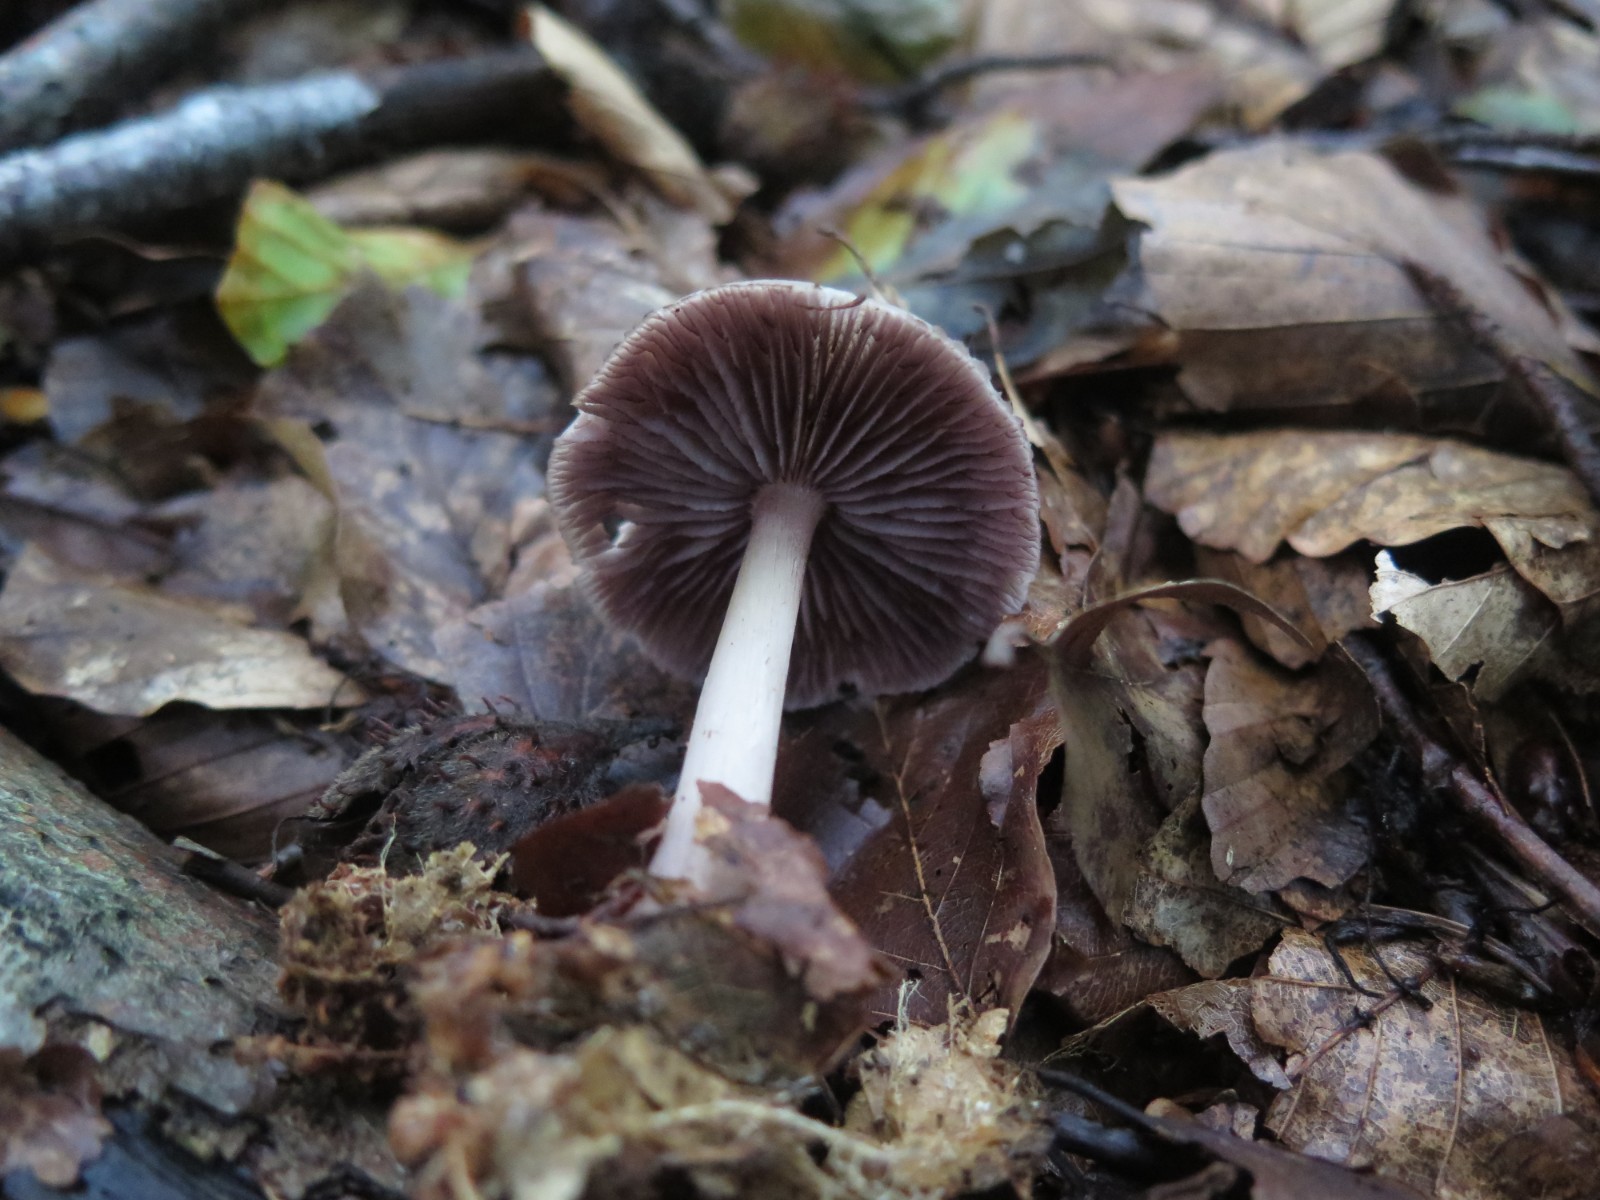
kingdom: Fungi
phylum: Basidiomycota
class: Agaricomycetes
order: Agaricales
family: Mycenaceae
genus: Mycena
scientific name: Mycena pelianthina
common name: mørkbladet huesvamp
